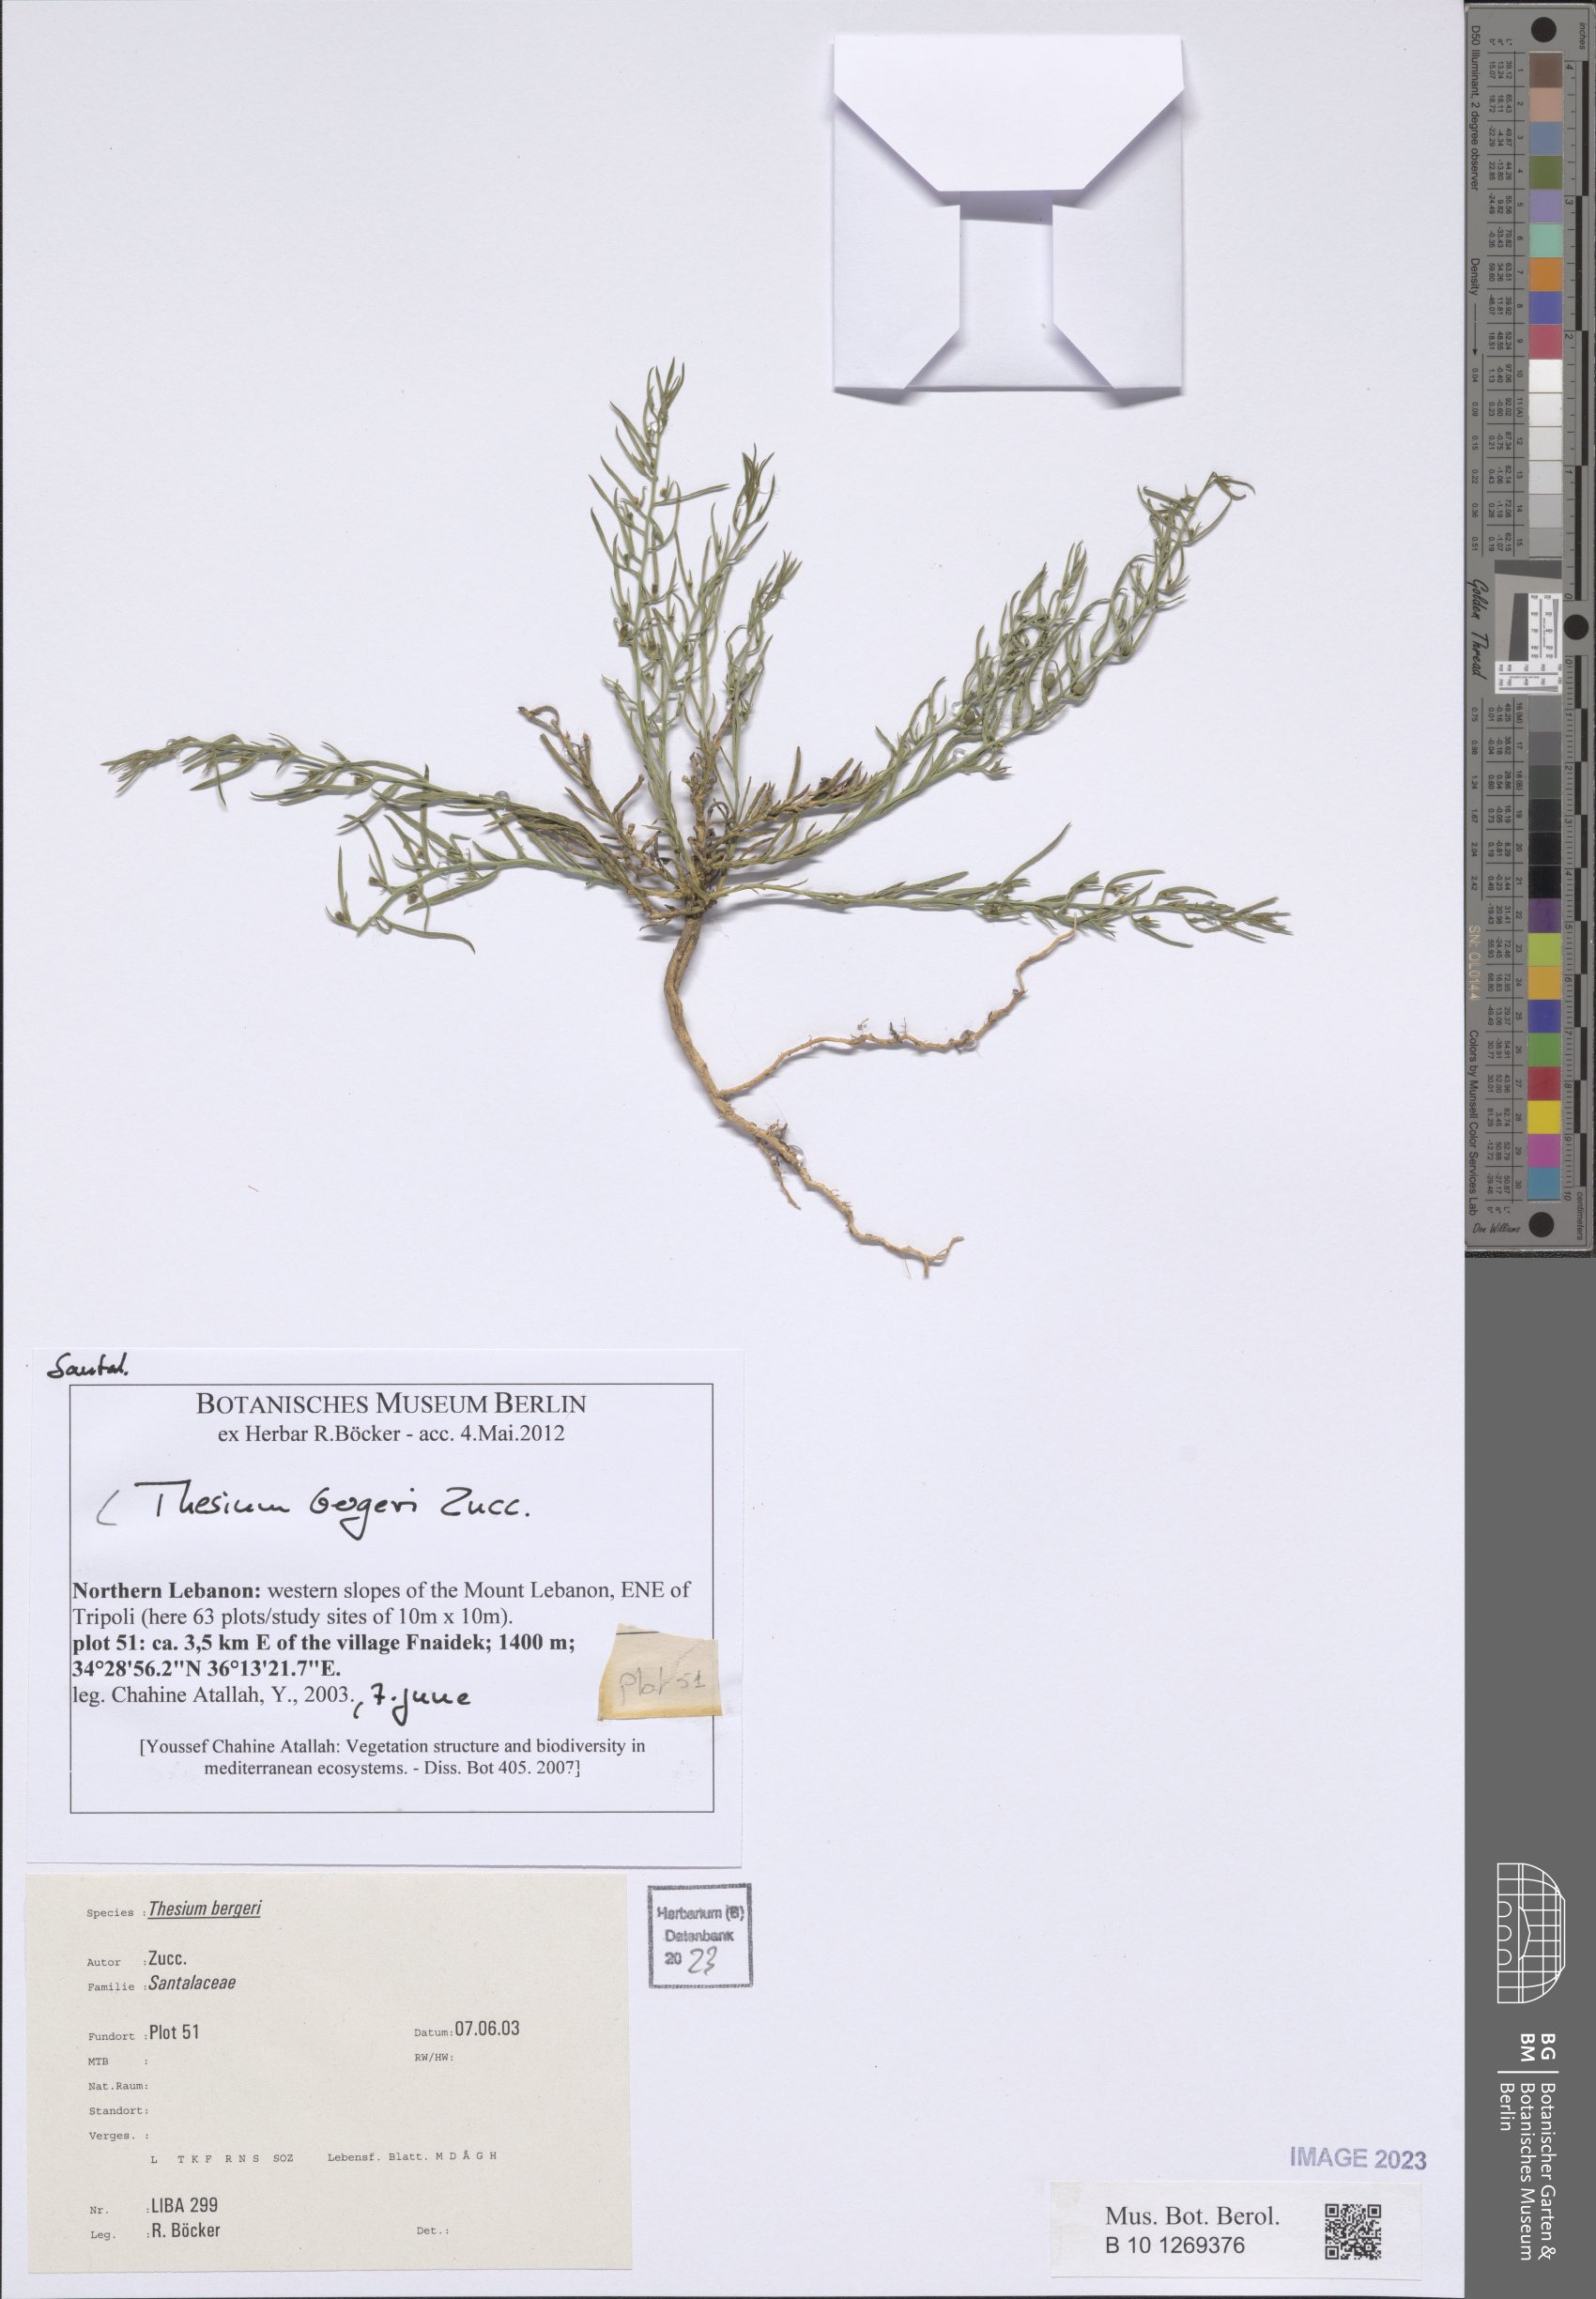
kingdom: Plantae
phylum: Tracheophyta
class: Magnoliopsida
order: Santalales
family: Thesiaceae
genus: Thesium
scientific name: Thesium bergeri
